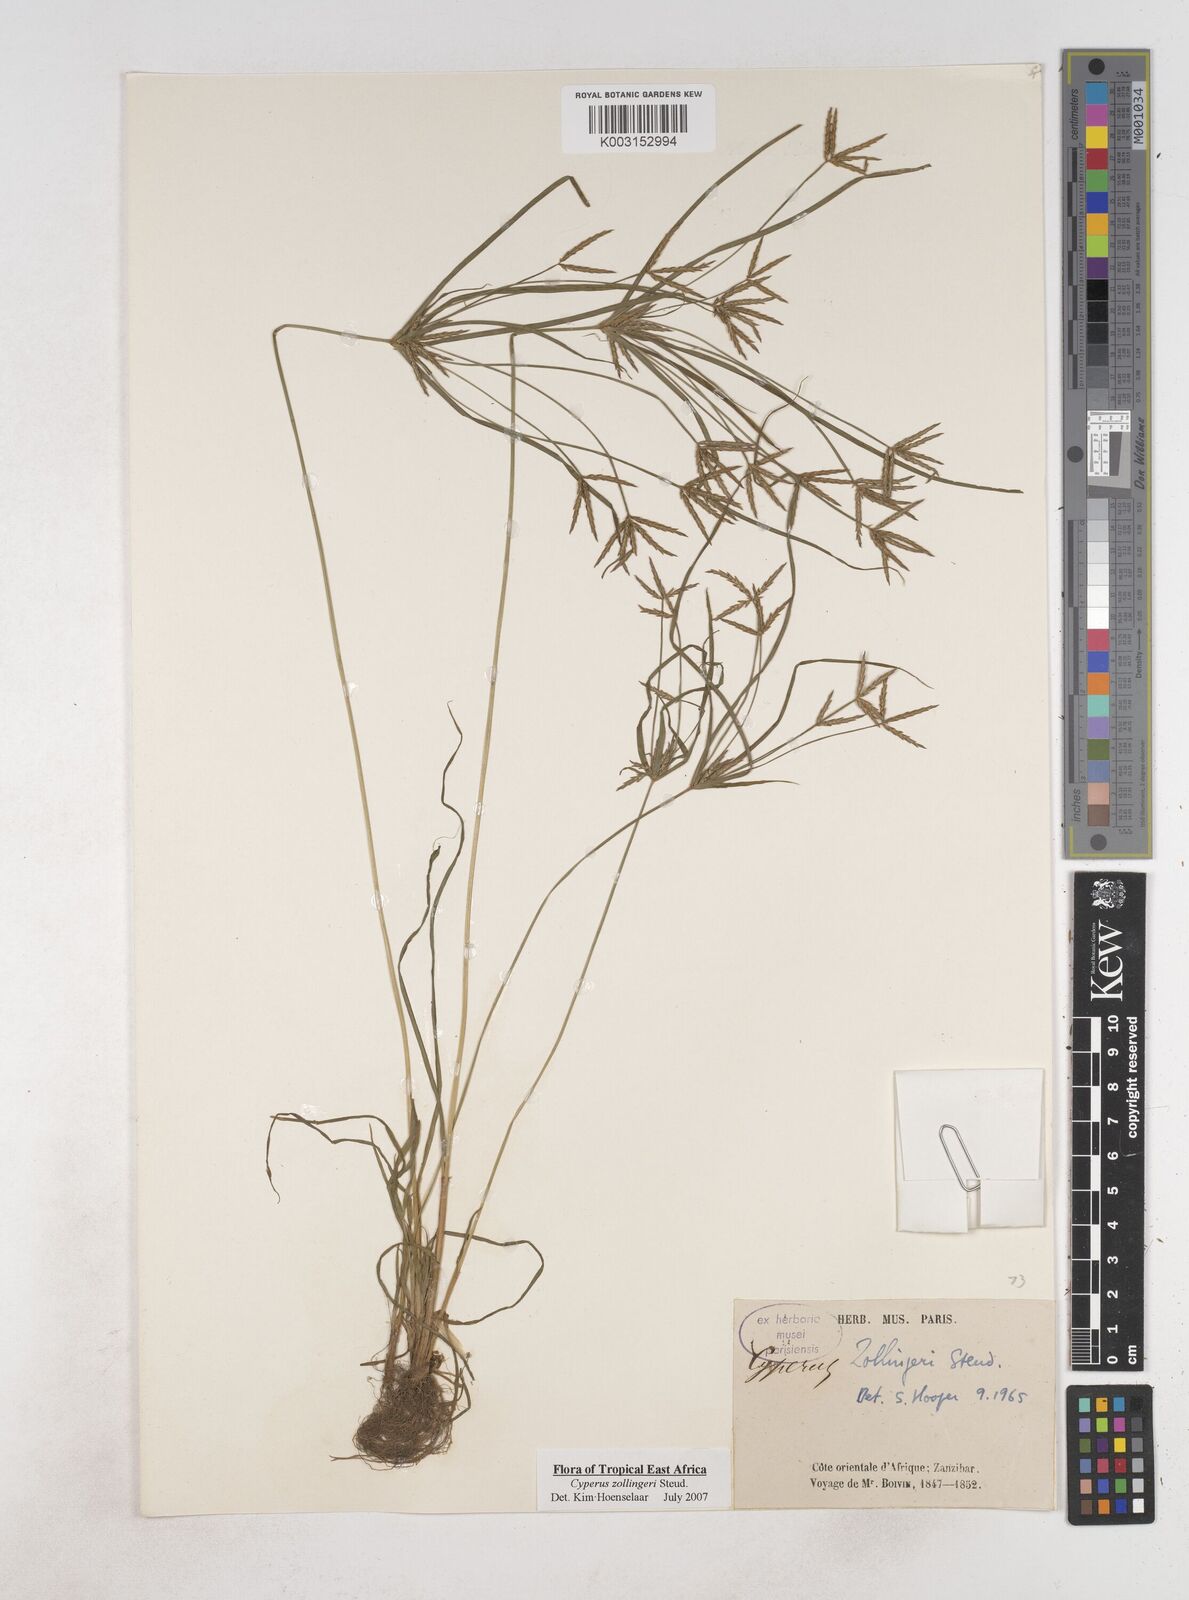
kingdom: Plantae
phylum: Tracheophyta
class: Liliopsida
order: Poales
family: Cyperaceae
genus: Cyperus
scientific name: Cyperus zollingeri
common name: Roadside flatsedge
